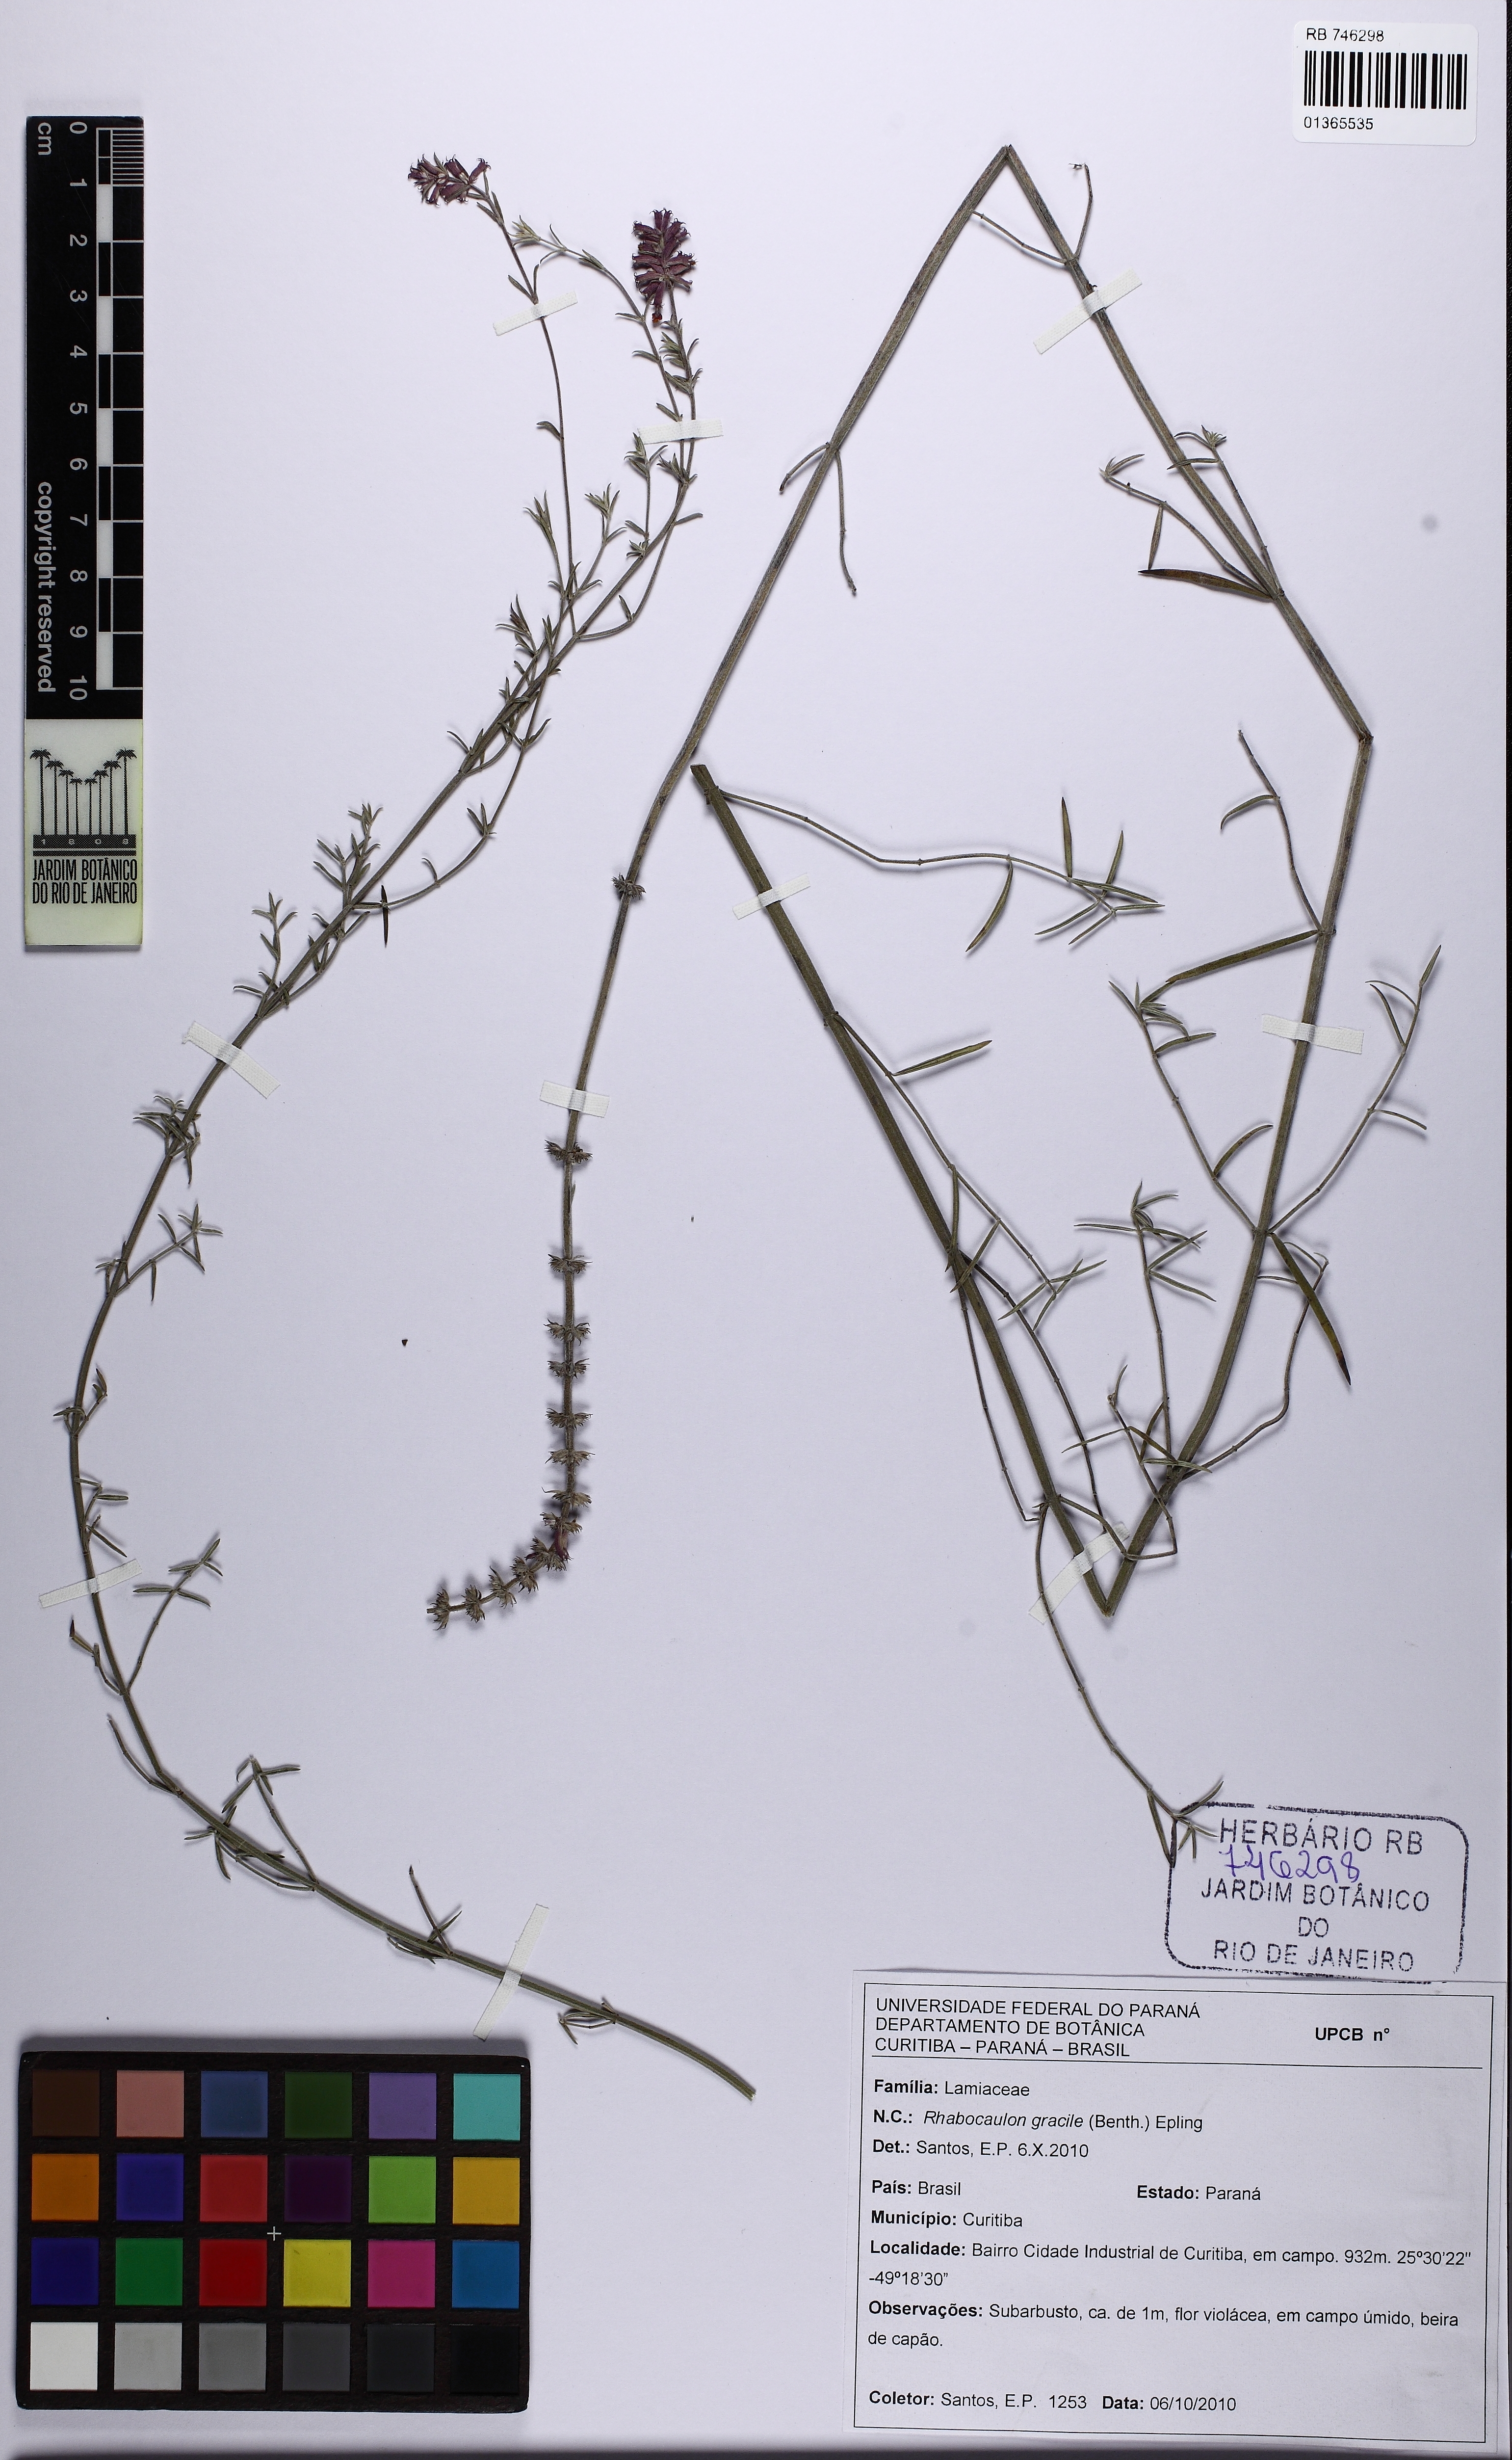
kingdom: Plantae
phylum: Tracheophyta
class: Magnoliopsida
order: Lamiales
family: Lamiaceae
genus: Rhabdocaulon
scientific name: Rhabdocaulon gracile
